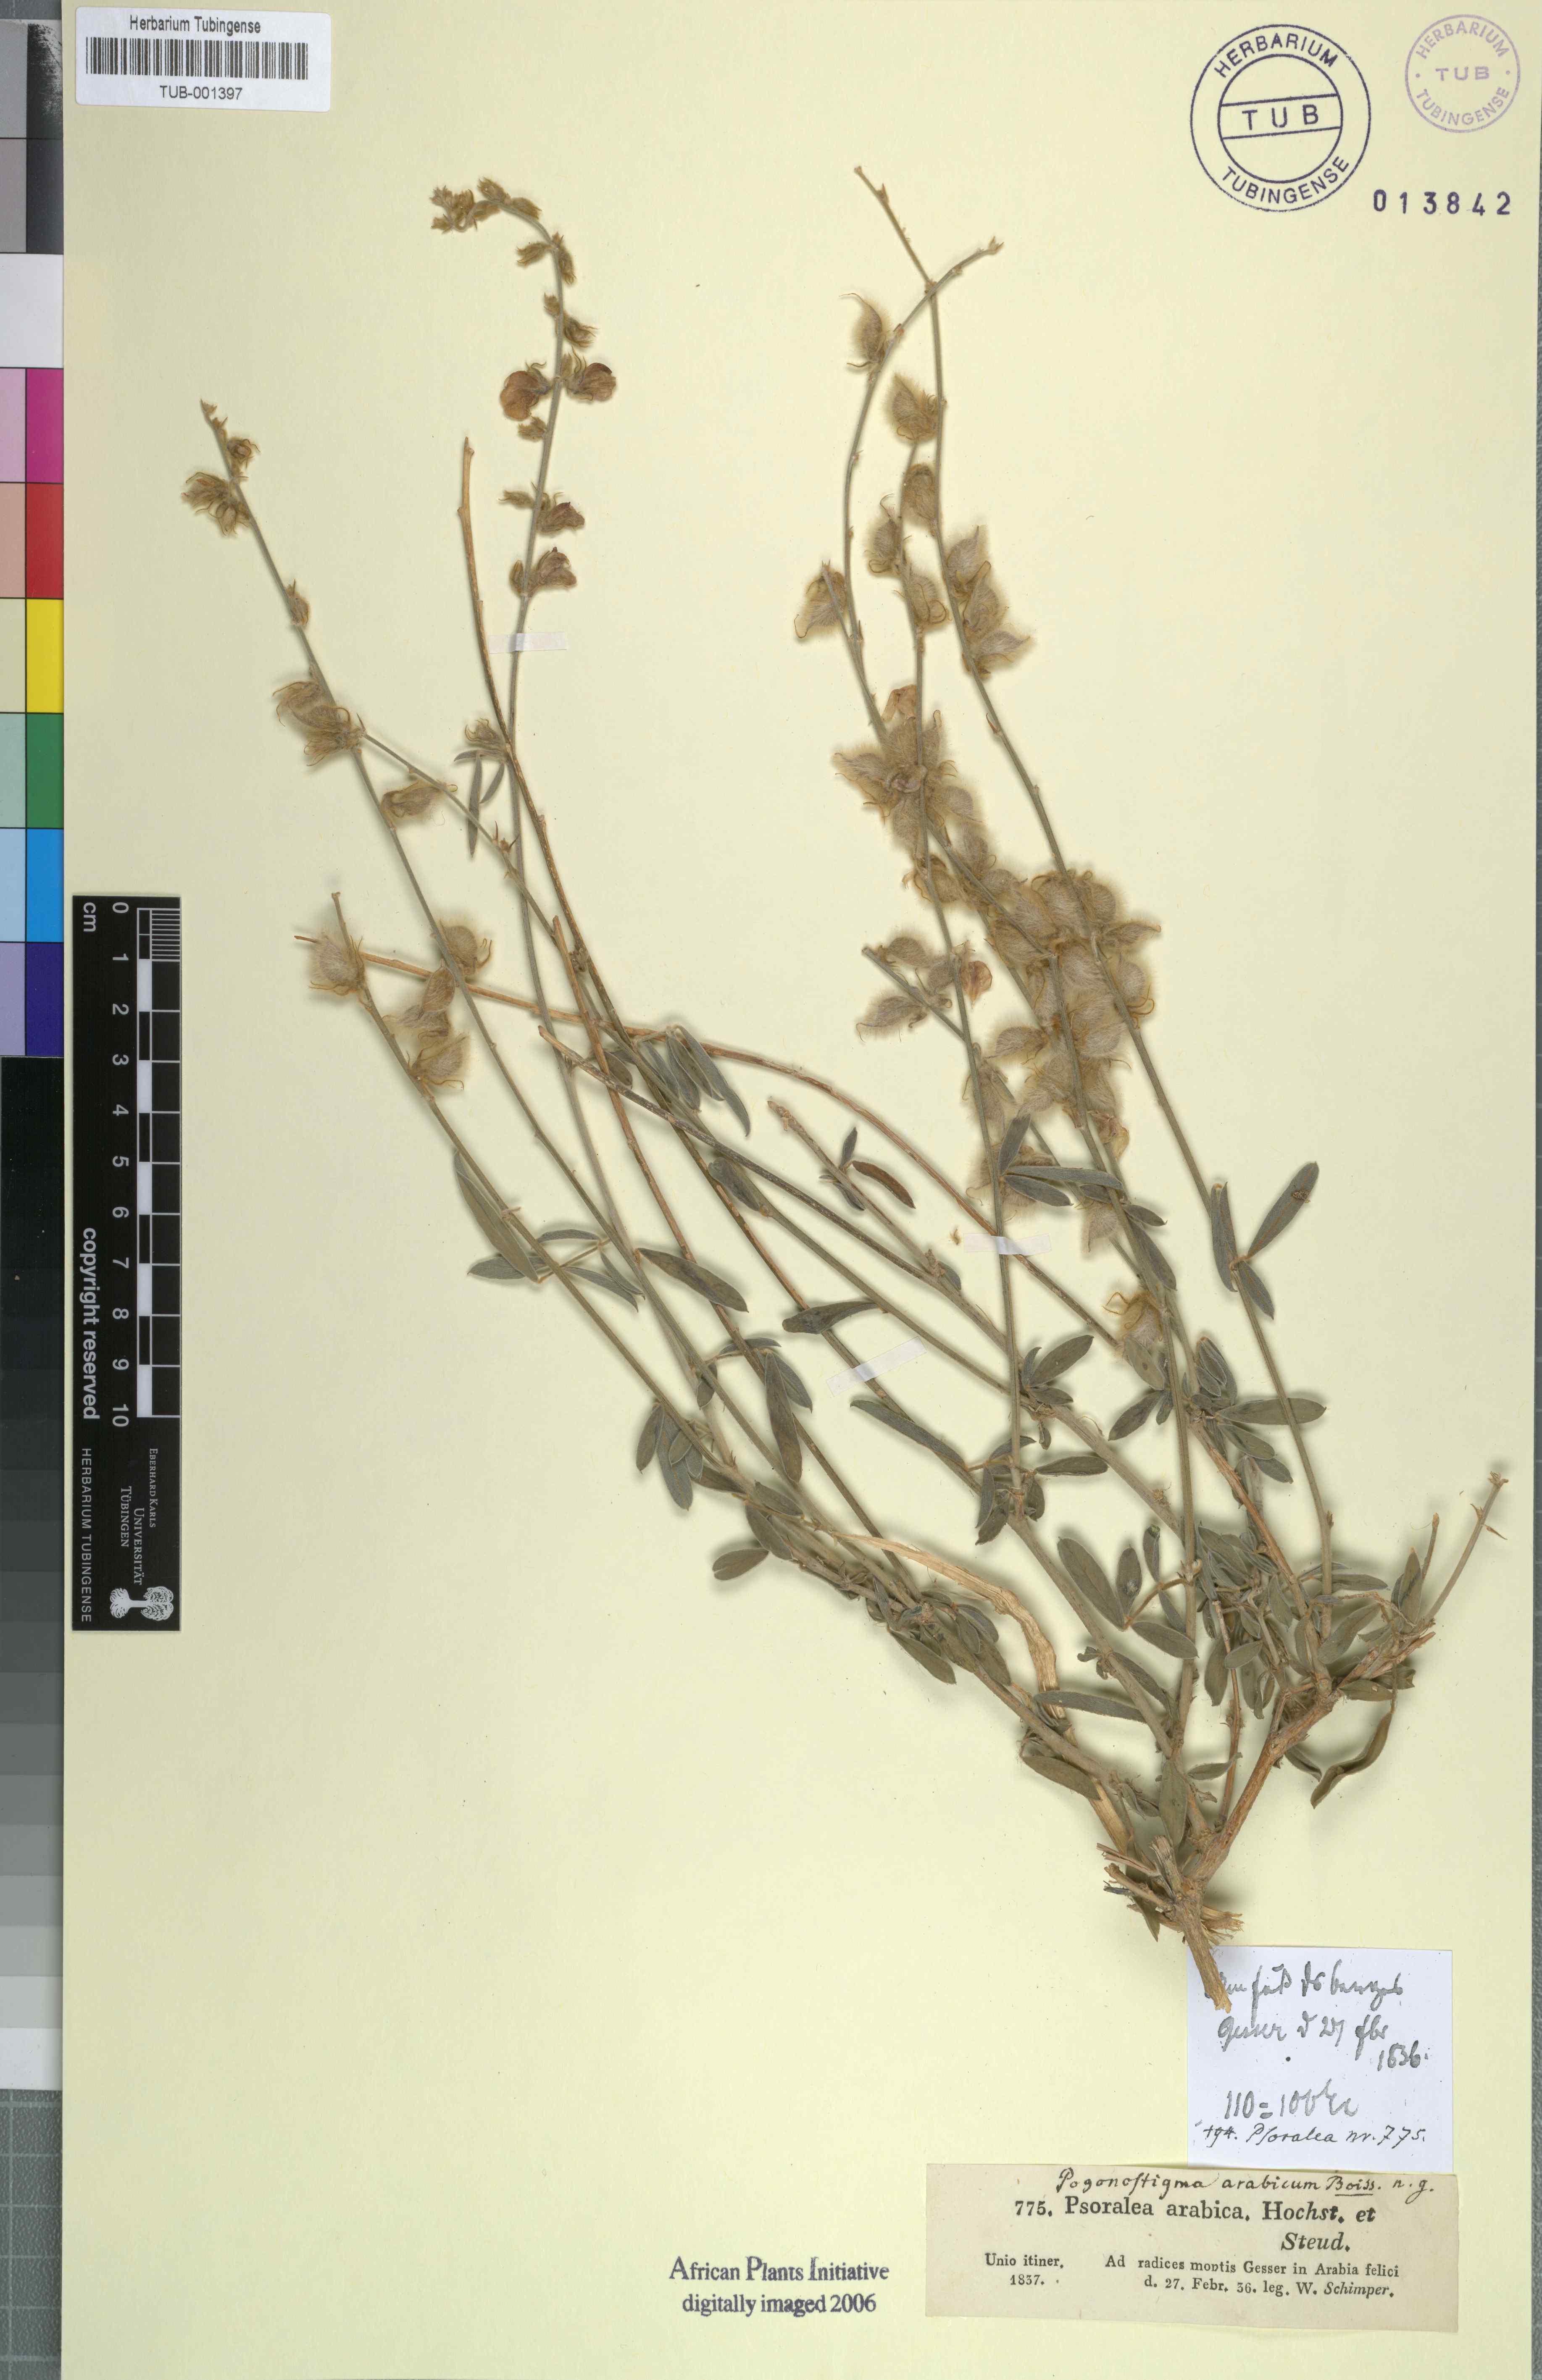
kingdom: Plantae
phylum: Tracheophyta
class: Magnoliopsida
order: Fabales
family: Fabaceae
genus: Tephrosia
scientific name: Tephrosia nubica
